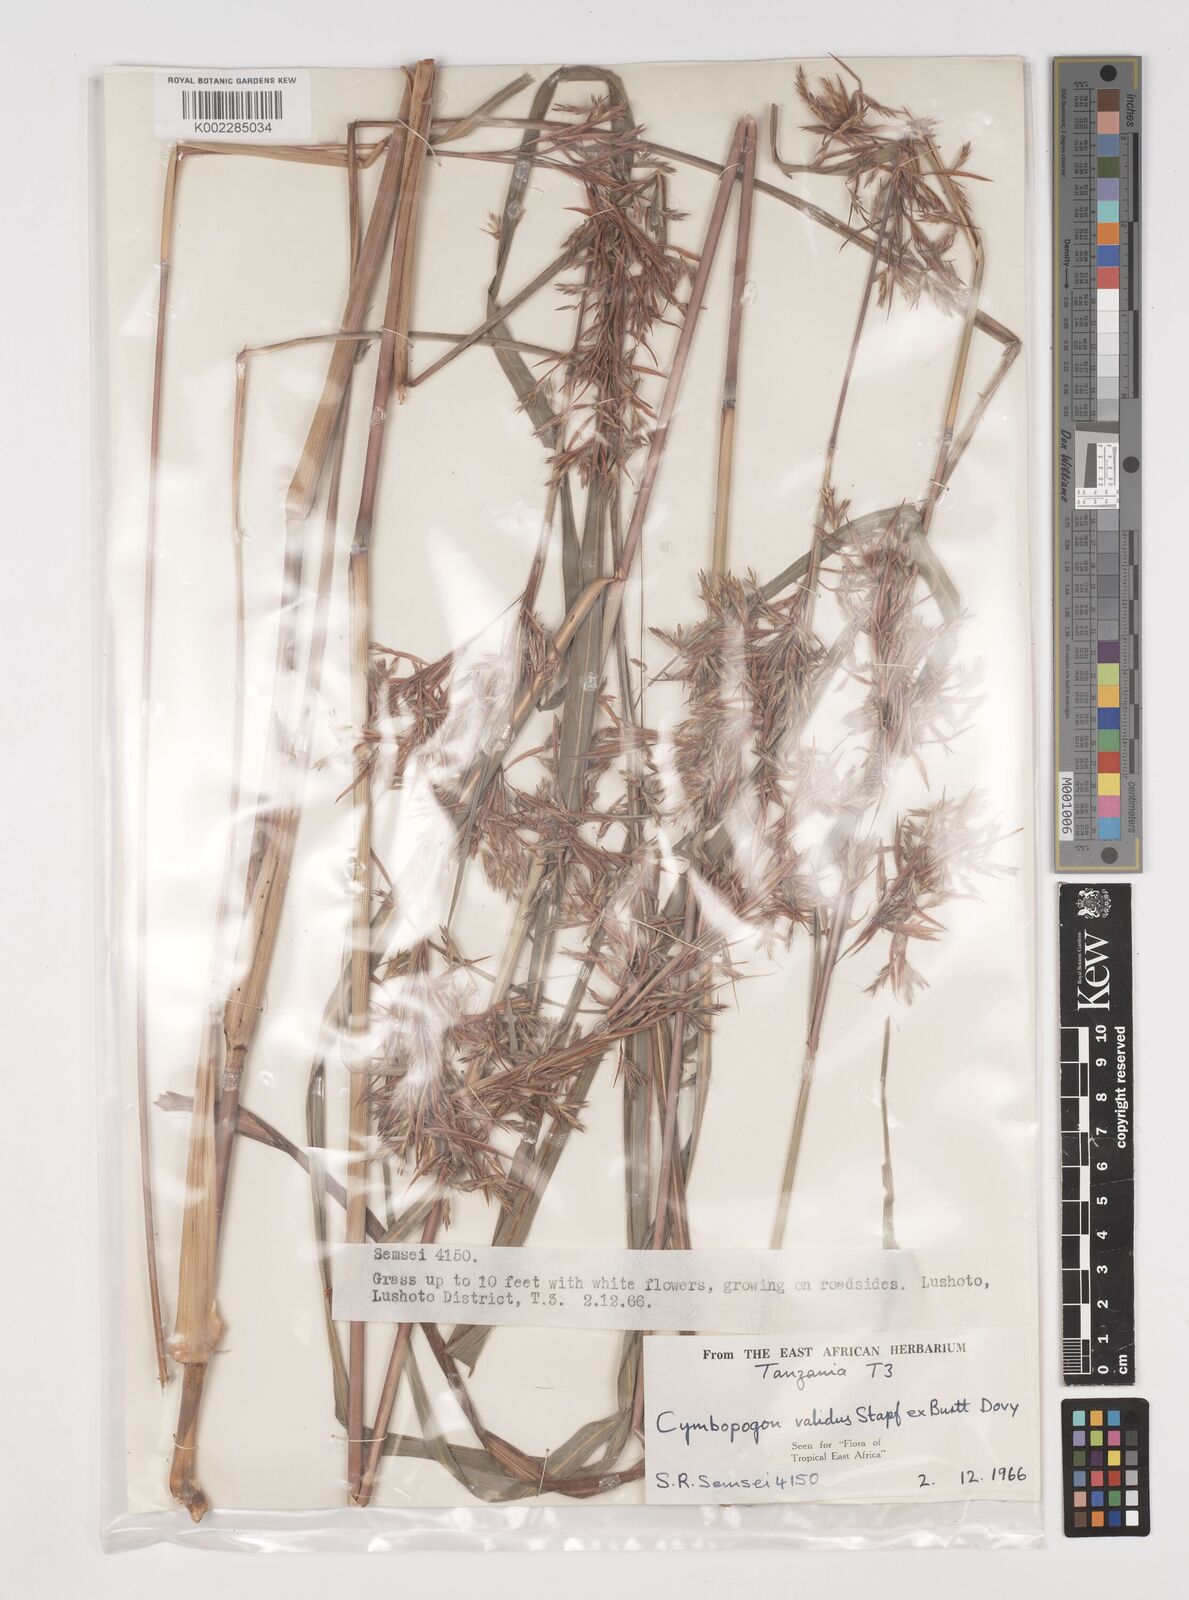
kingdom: Plantae
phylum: Tracheophyta
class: Liliopsida
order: Poales
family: Poaceae
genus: Cymbopogon
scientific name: Cymbopogon nardus
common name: Giant turpentine grass
